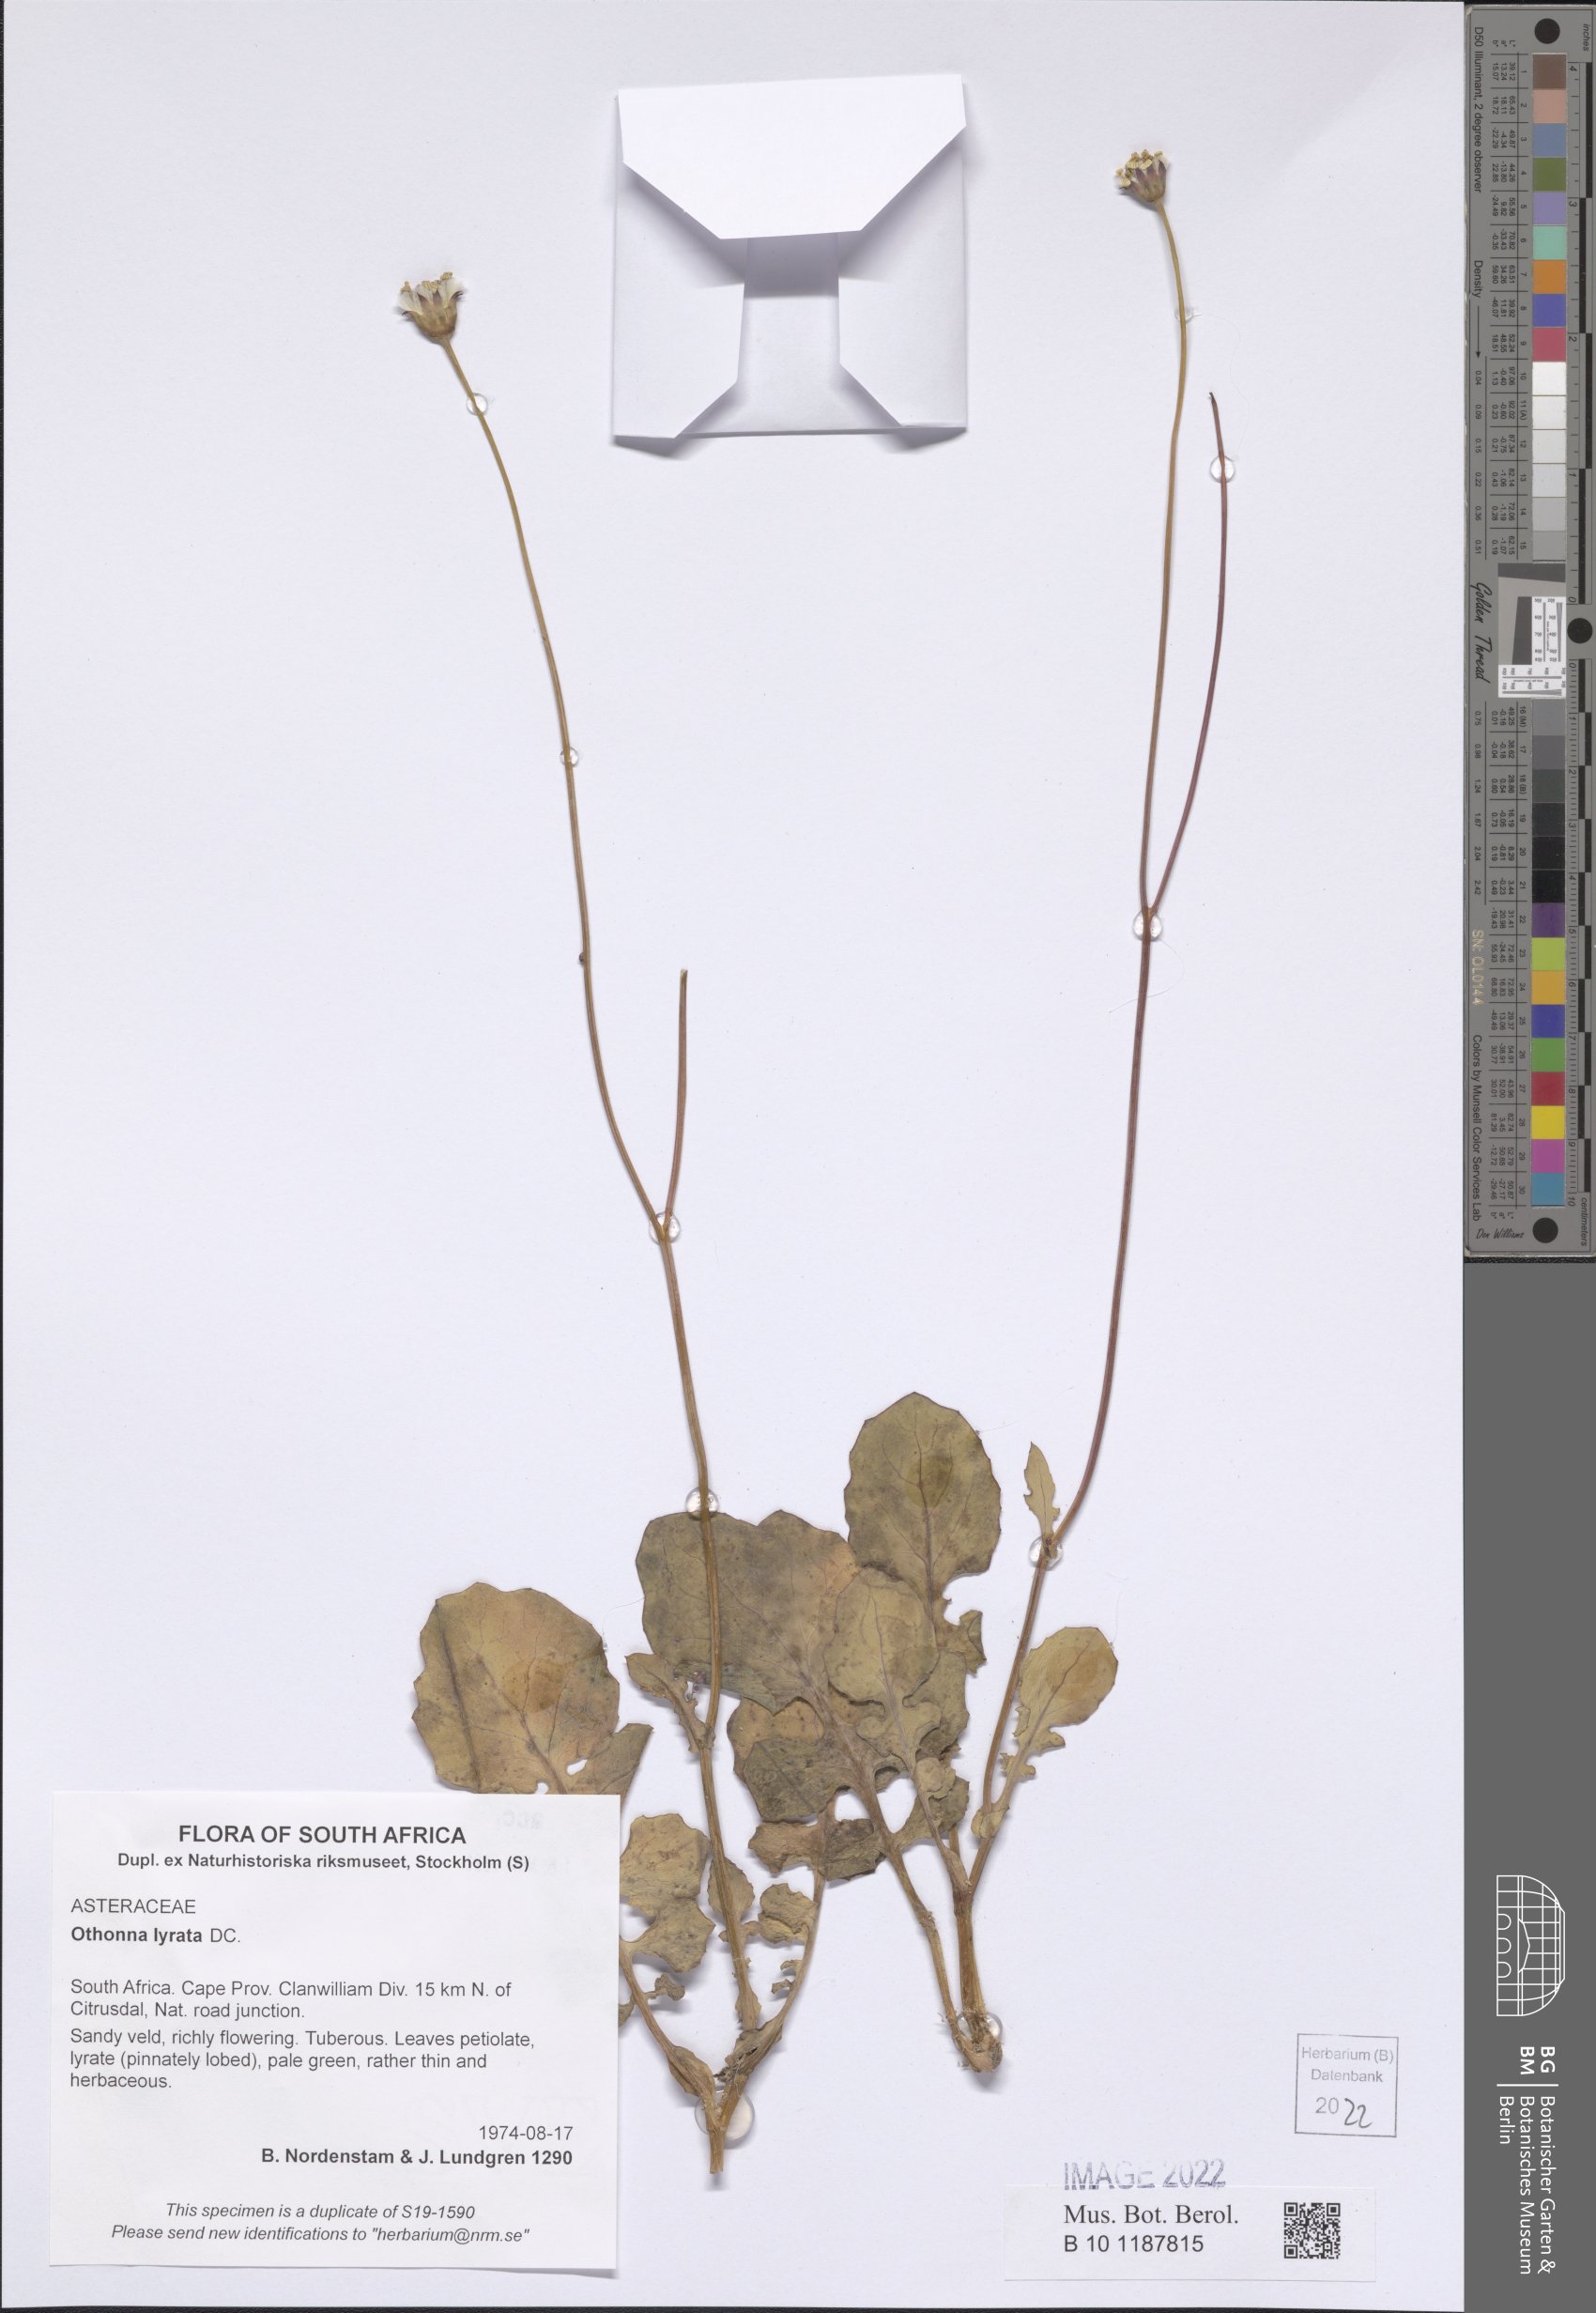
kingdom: Plantae
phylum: Tracheophyta
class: Magnoliopsida
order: Asterales
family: Asteraceae
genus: Othonna
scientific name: Othonna lyrata
